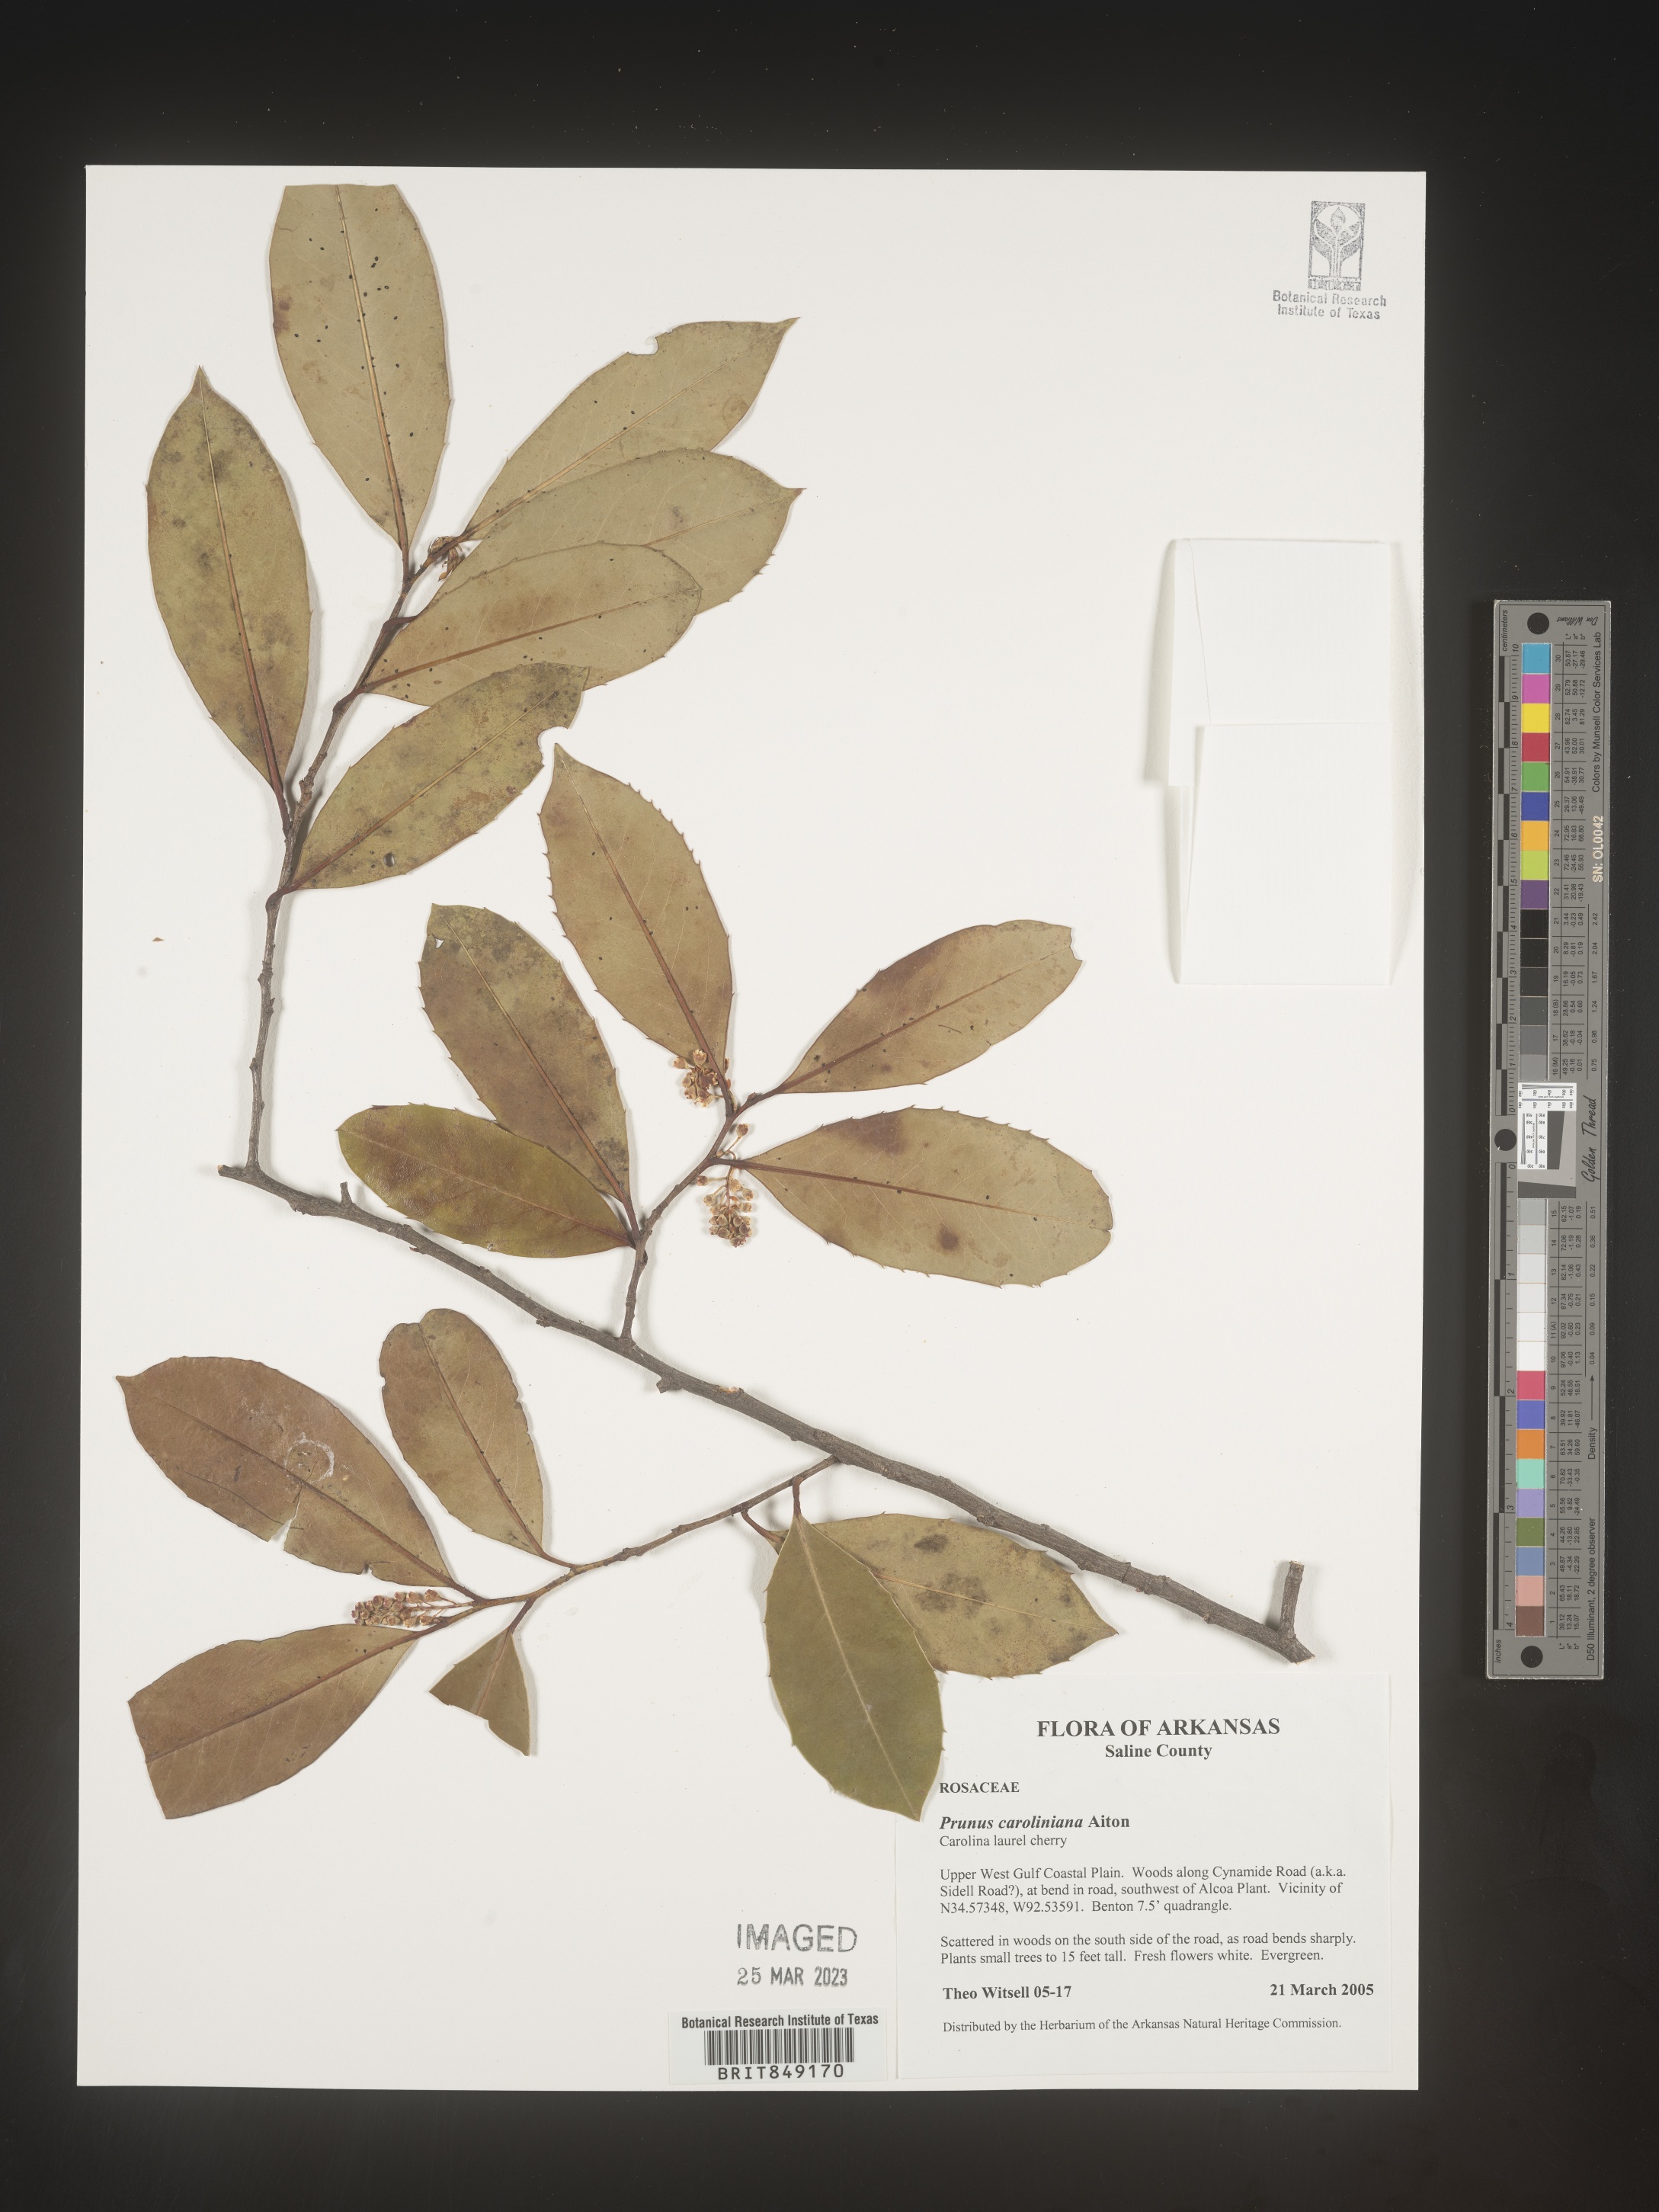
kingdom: Plantae
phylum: Tracheophyta
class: Magnoliopsida
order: Rosales
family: Rosaceae
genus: Prunus
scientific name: Prunus caroliniana
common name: Carolina laurel cherry
